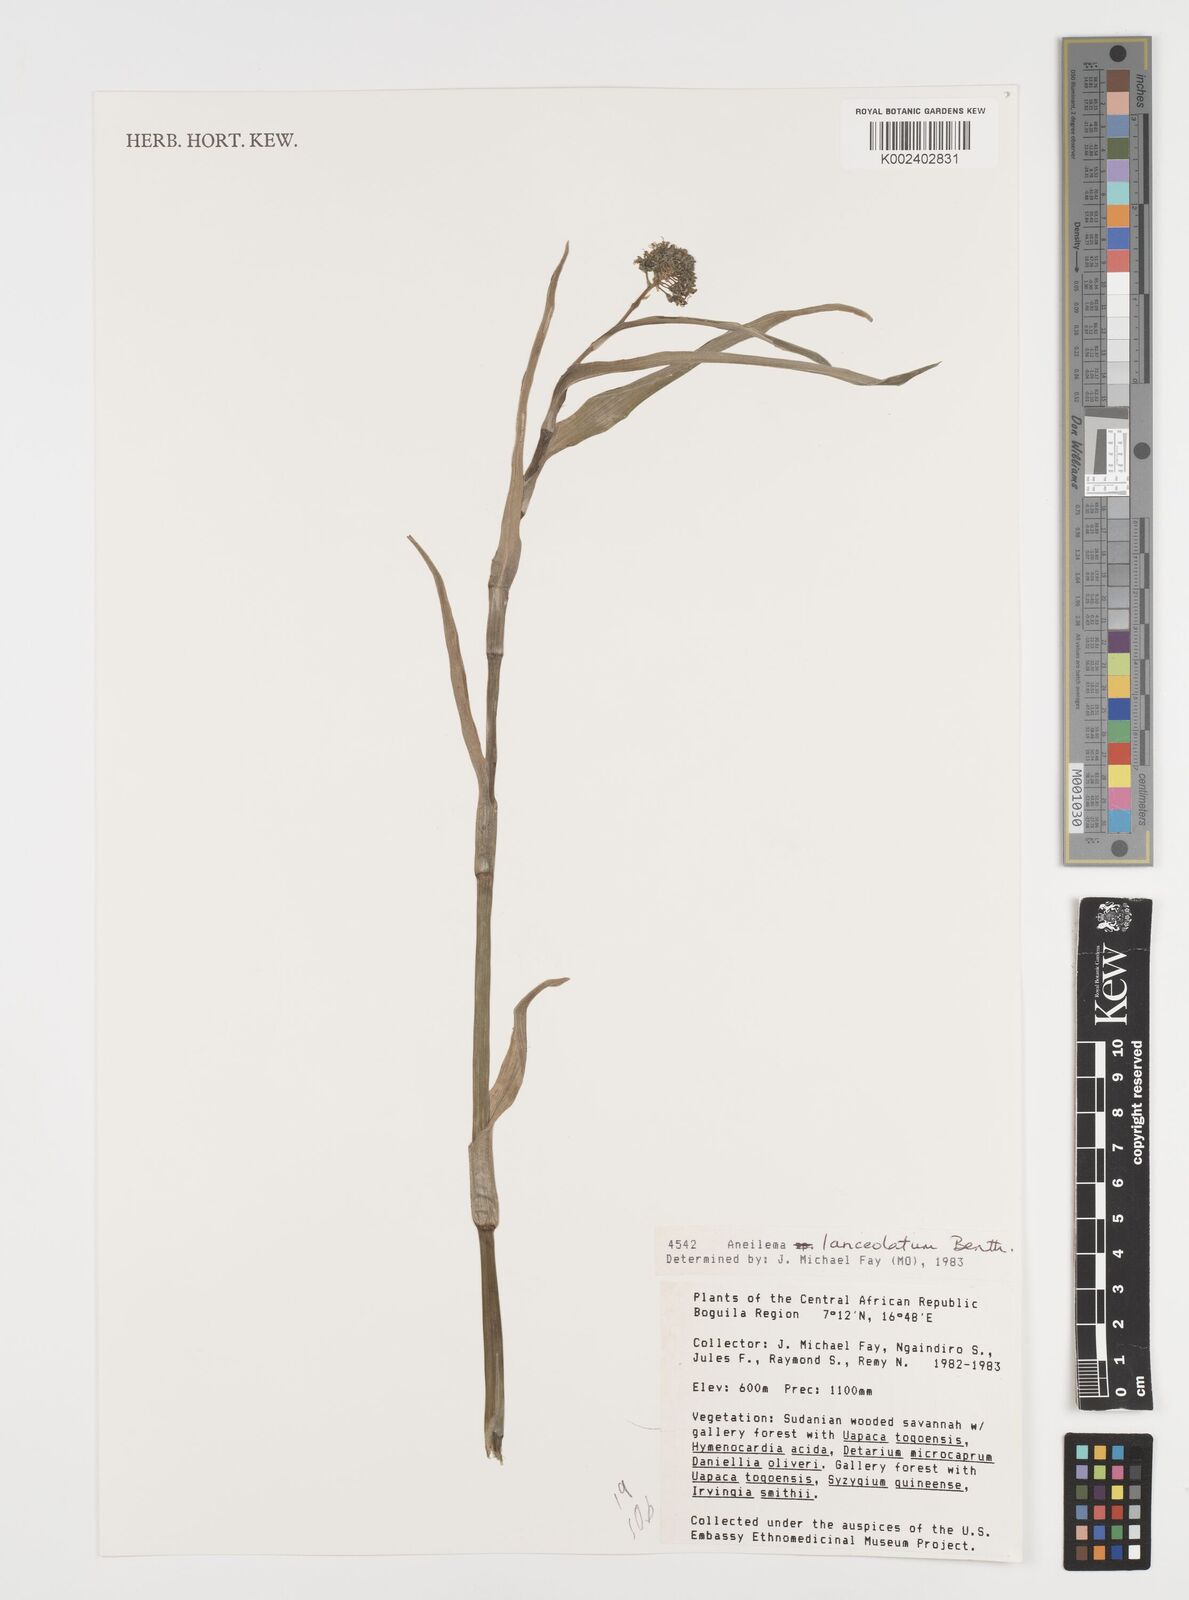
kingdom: Plantae
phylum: Tracheophyta
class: Liliopsida
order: Commelinales
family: Commelinaceae
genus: Aneilema
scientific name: Aneilema lanceolatum
